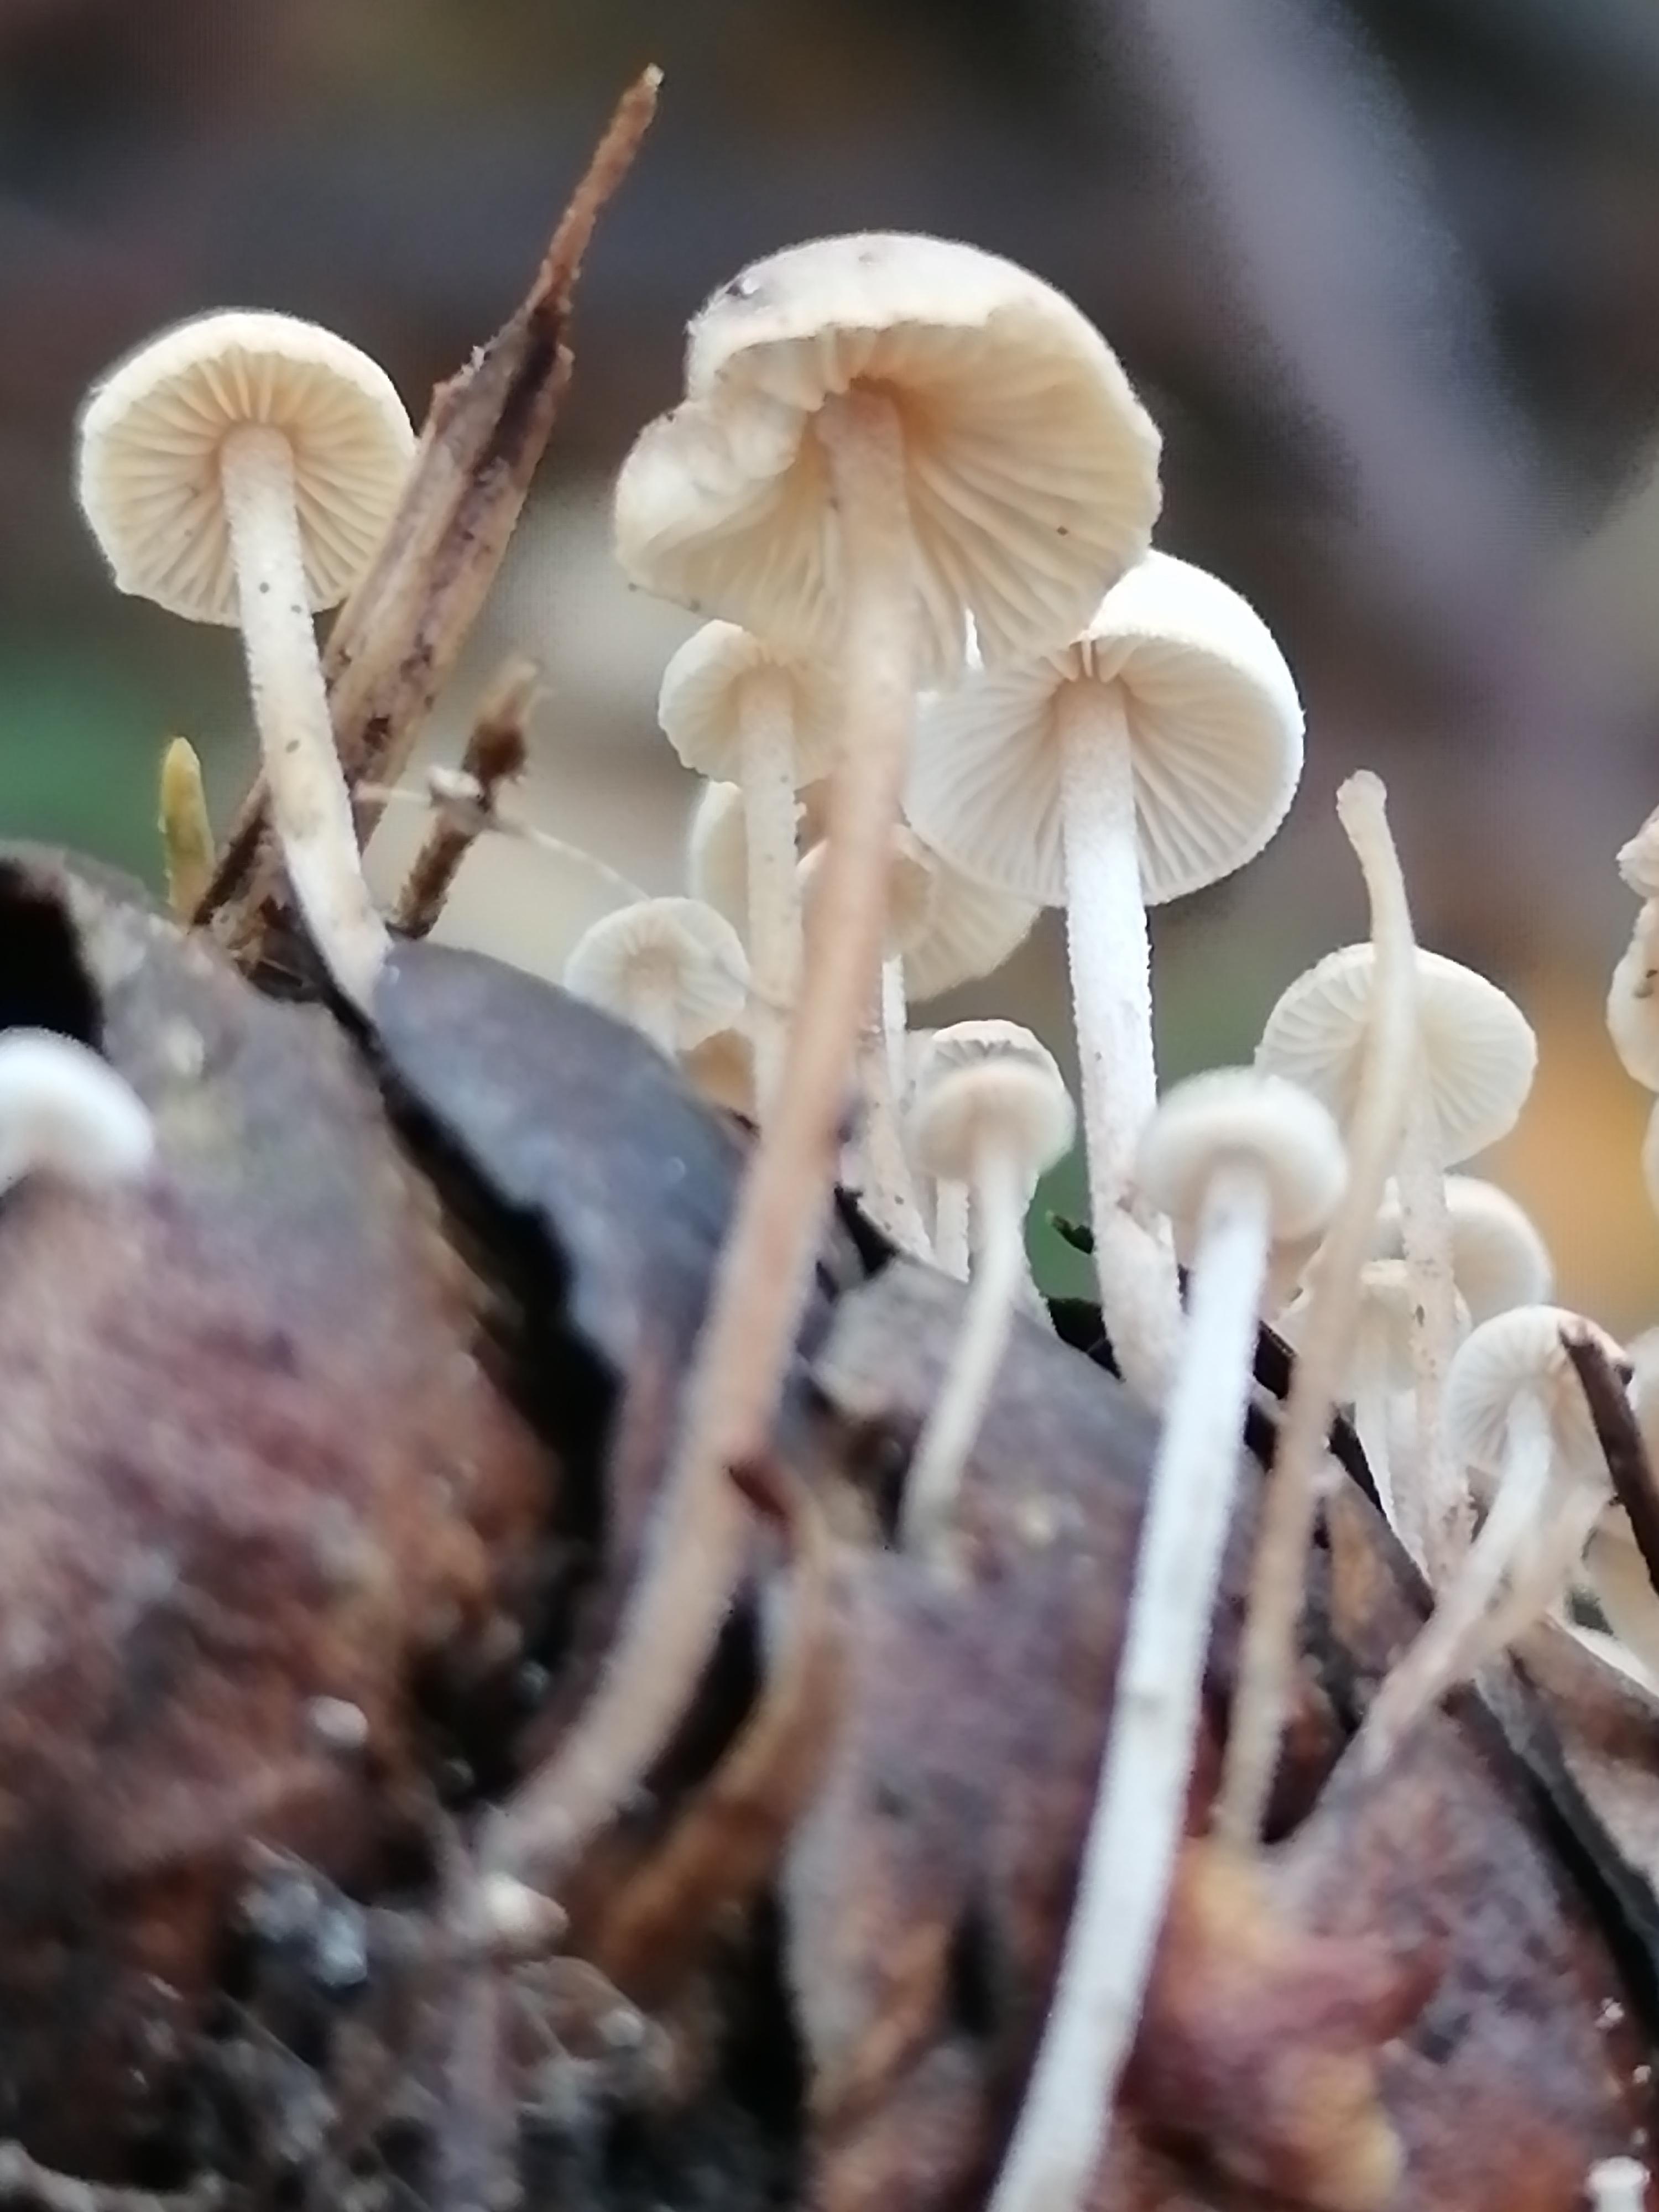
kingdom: Fungi
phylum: Basidiomycota
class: Agaricomycetes
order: Agaricales
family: Marasmiaceae
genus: Baeospora
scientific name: Baeospora myosura
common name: koglebruskhat
